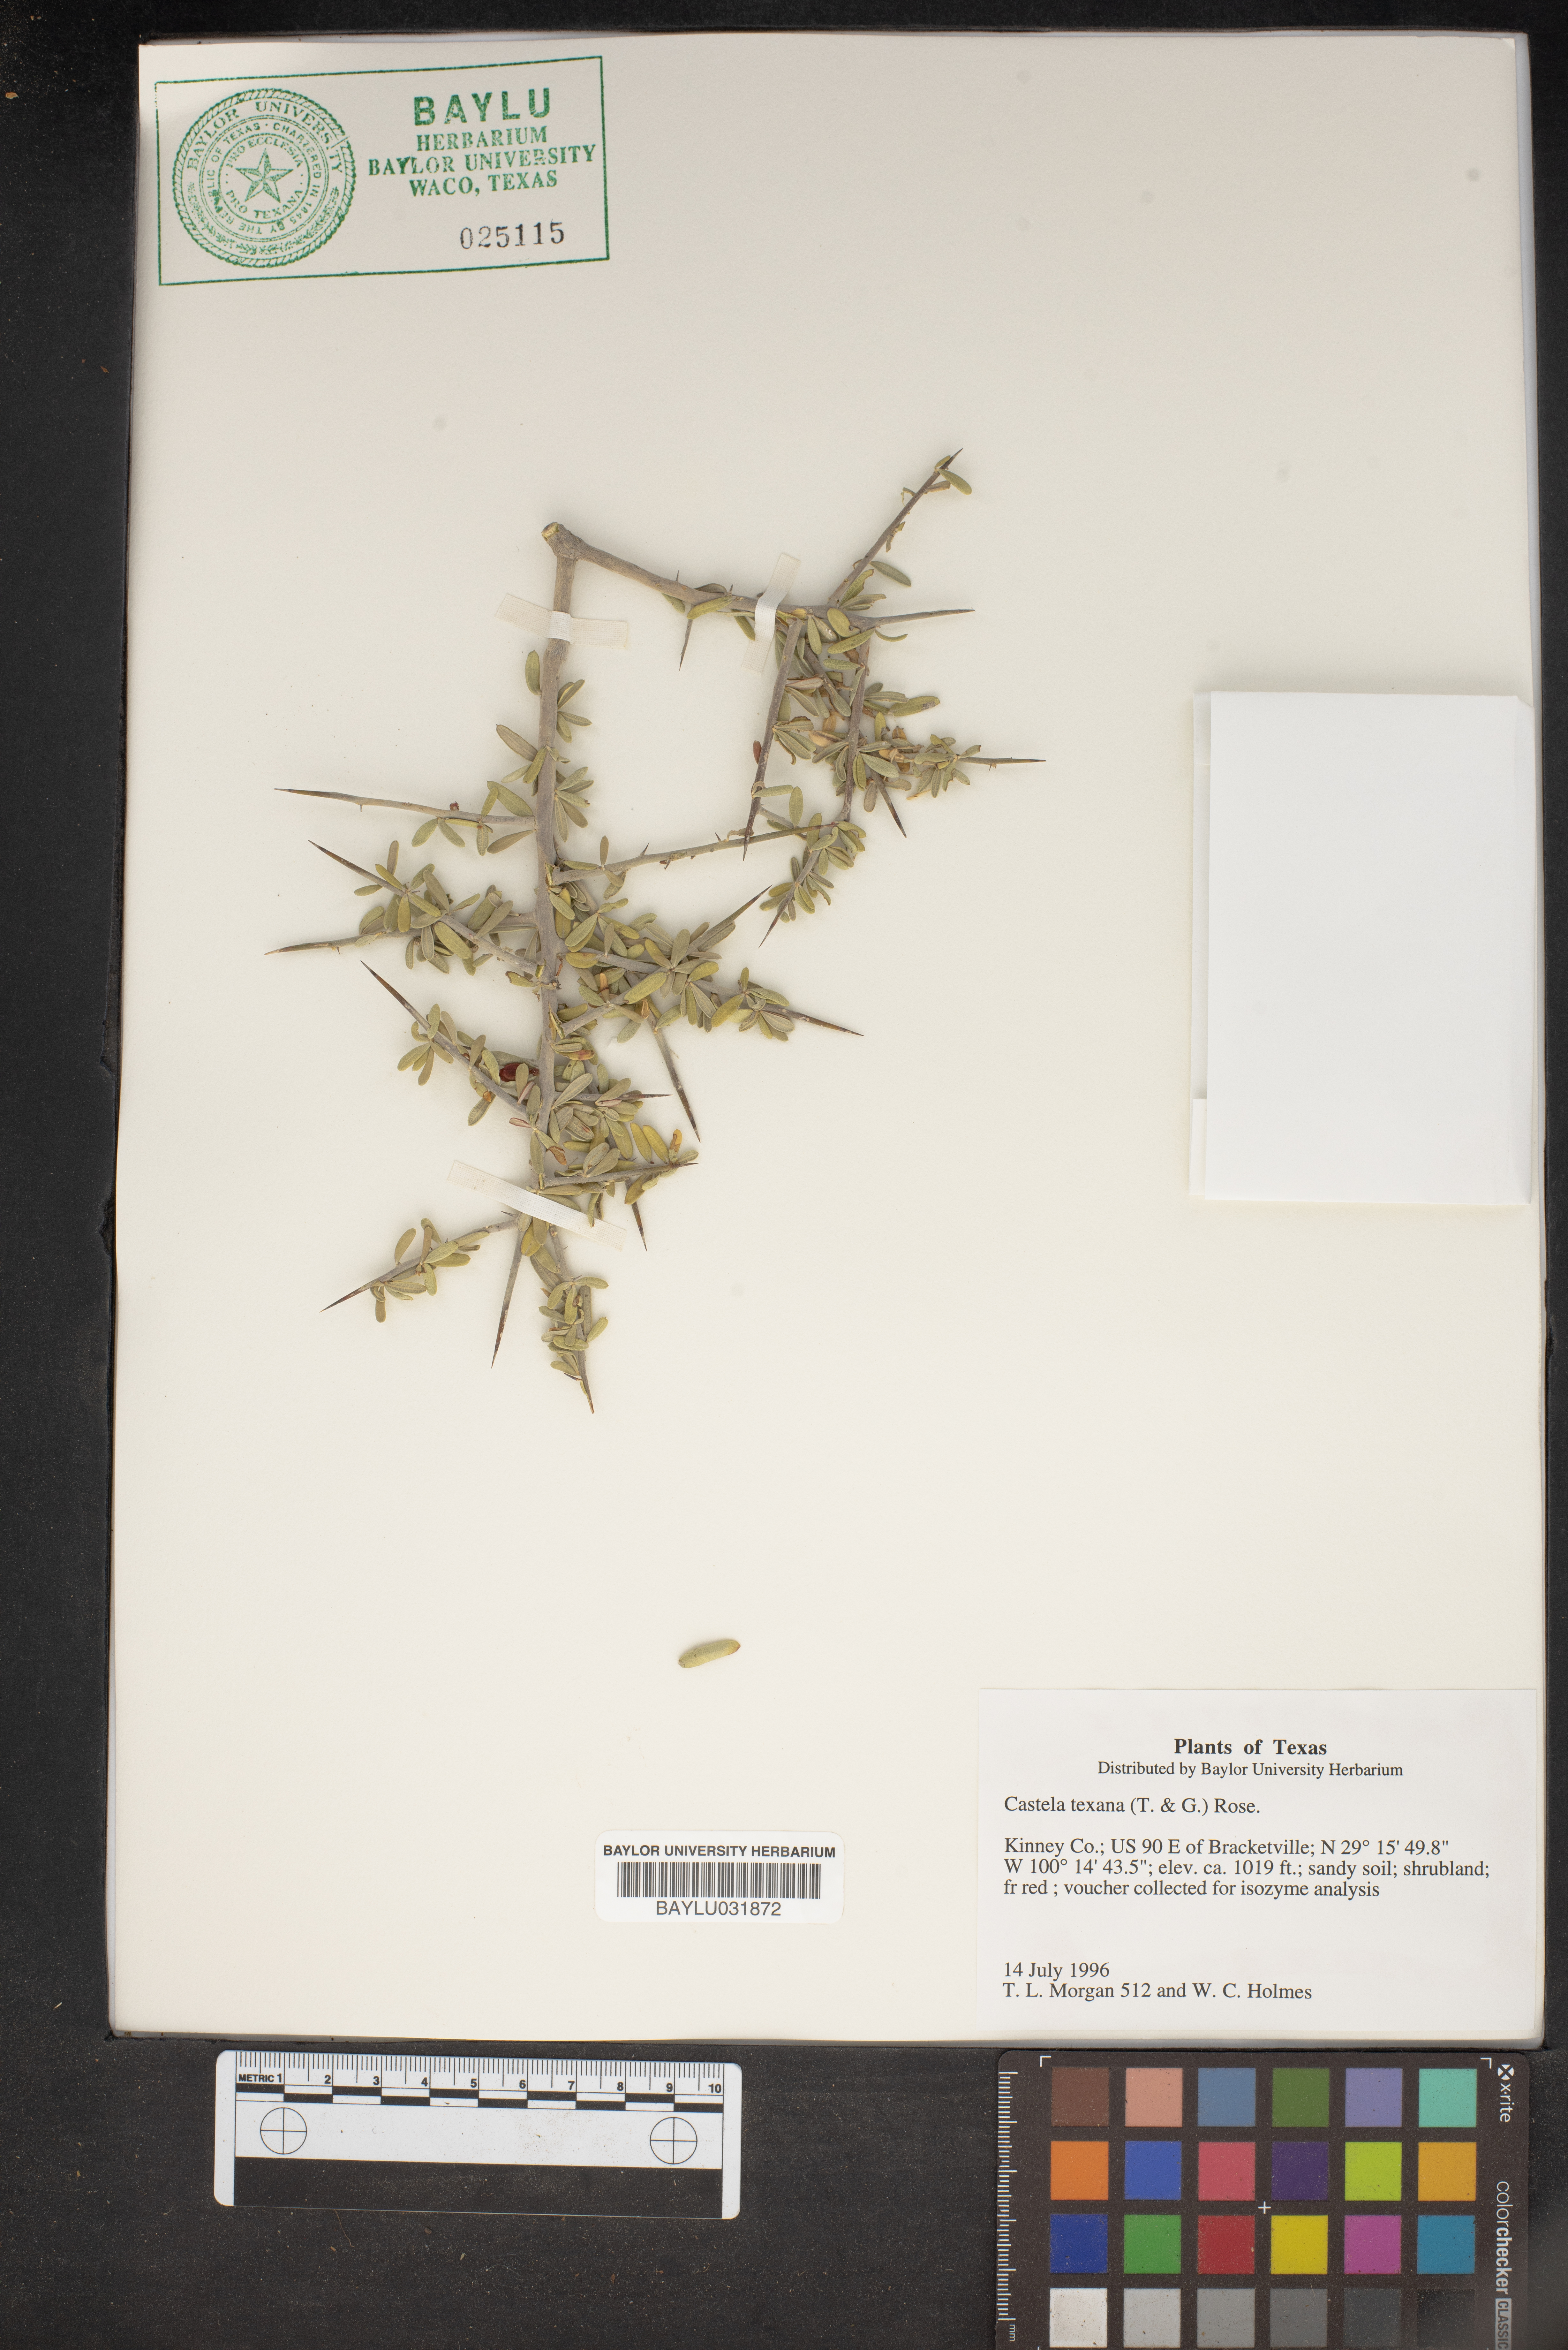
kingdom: Plantae
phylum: Tracheophyta
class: Magnoliopsida
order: Sapindales
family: Simaroubaceae
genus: Castela
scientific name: Castela tortuosa
